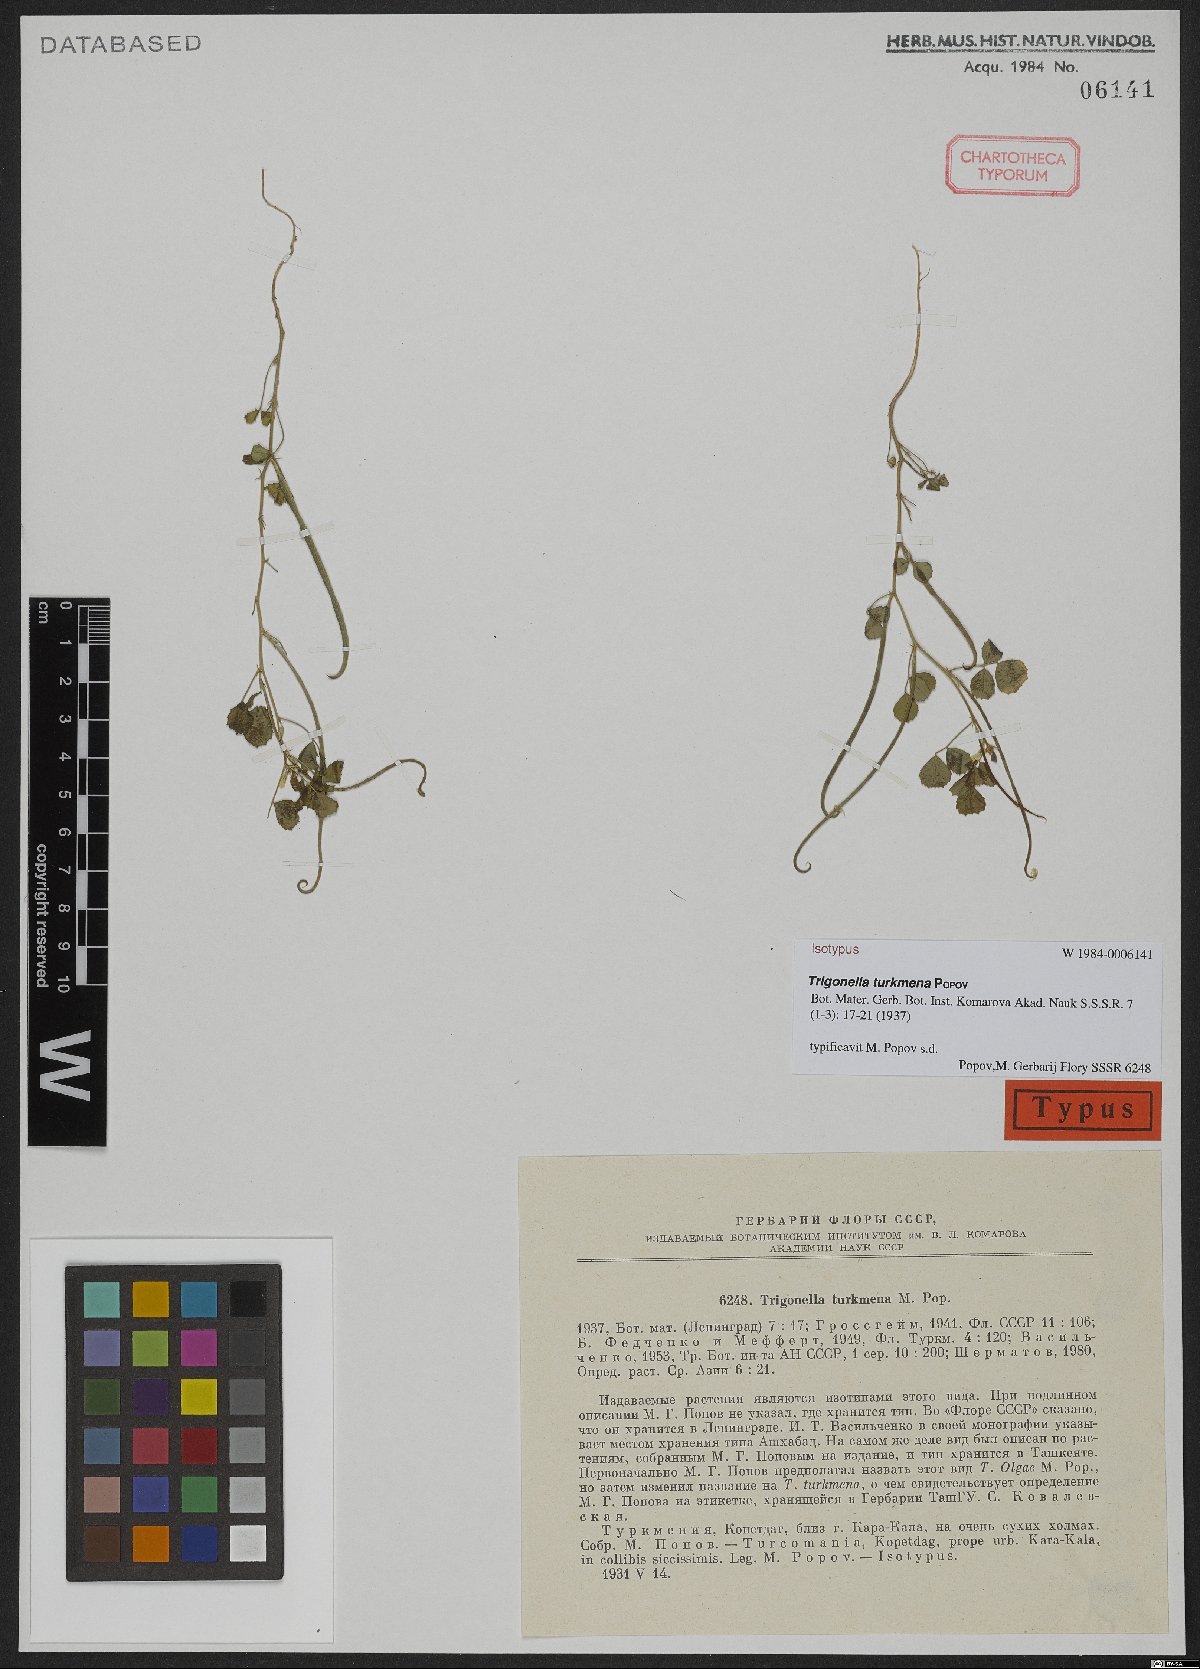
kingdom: Plantae
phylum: Tracheophyta
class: Magnoliopsida
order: Fabales
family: Fabaceae
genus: Trigonella
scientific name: Trigonella turkmena
